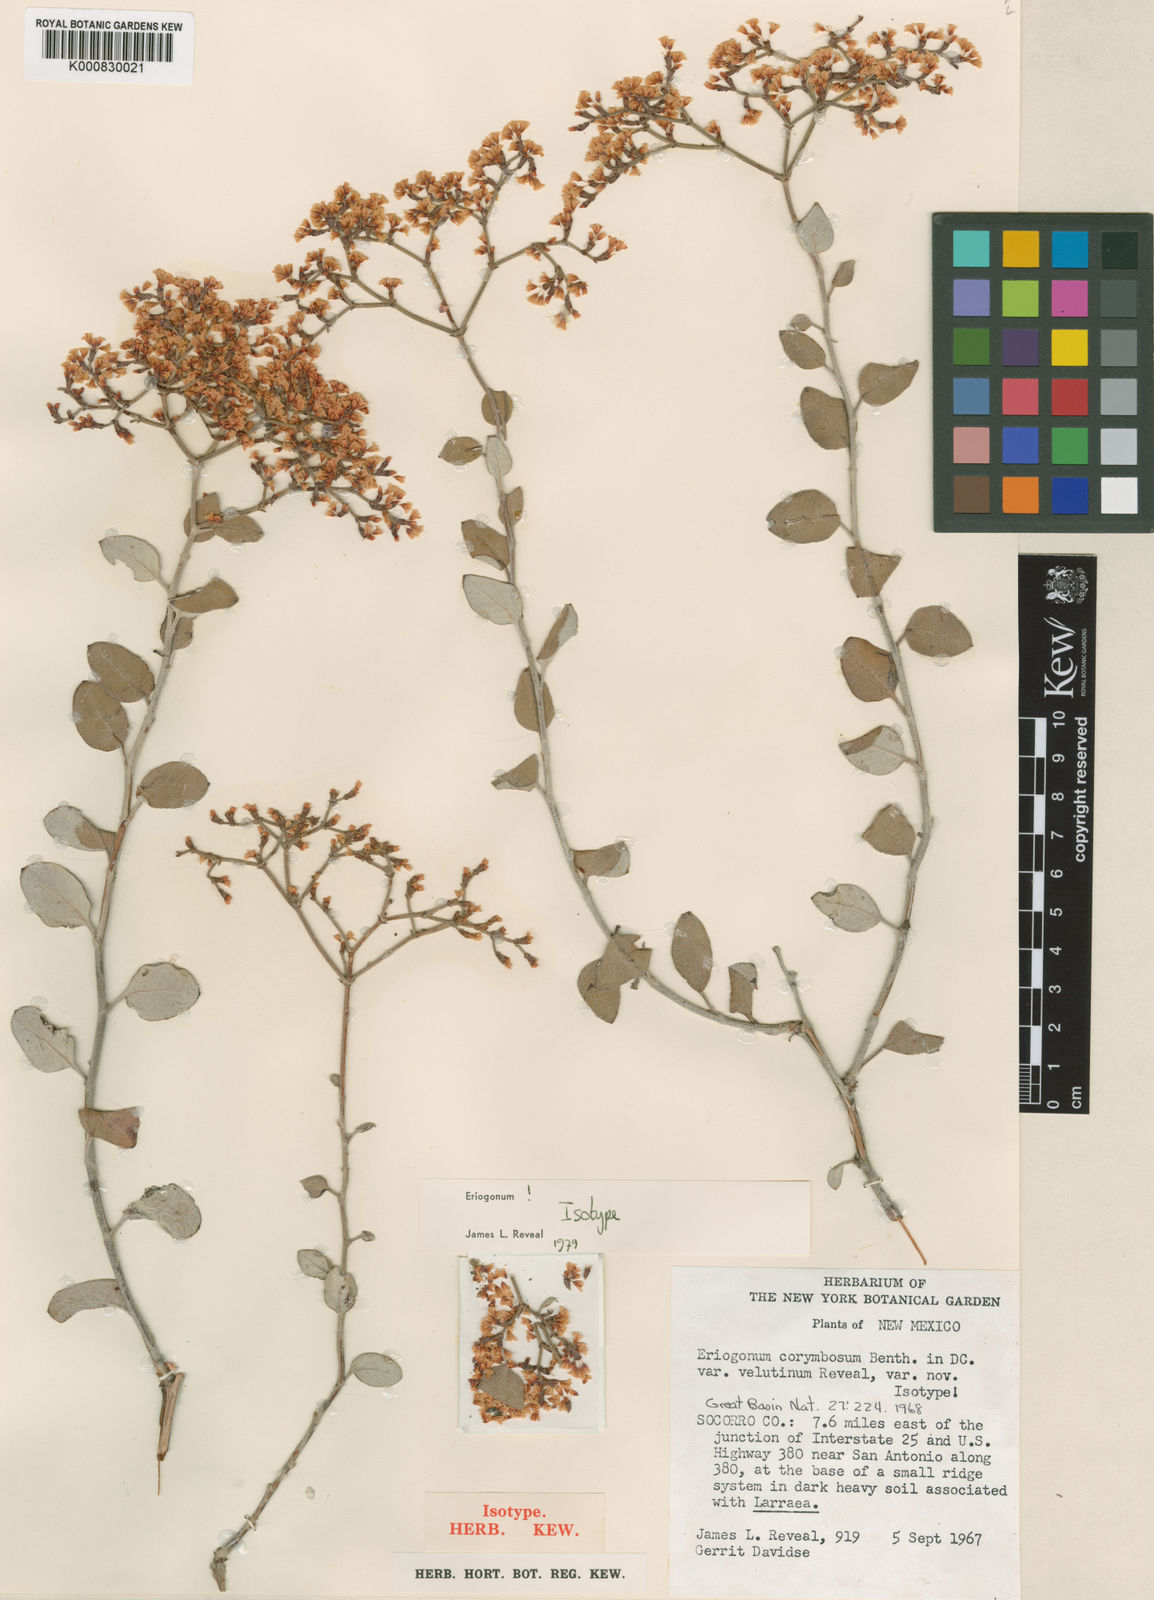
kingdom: Plantae
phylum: Tracheophyta
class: Magnoliopsida
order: Caryophyllales
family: Polygonaceae
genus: Eriogonum
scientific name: Eriogonum corymbosum
